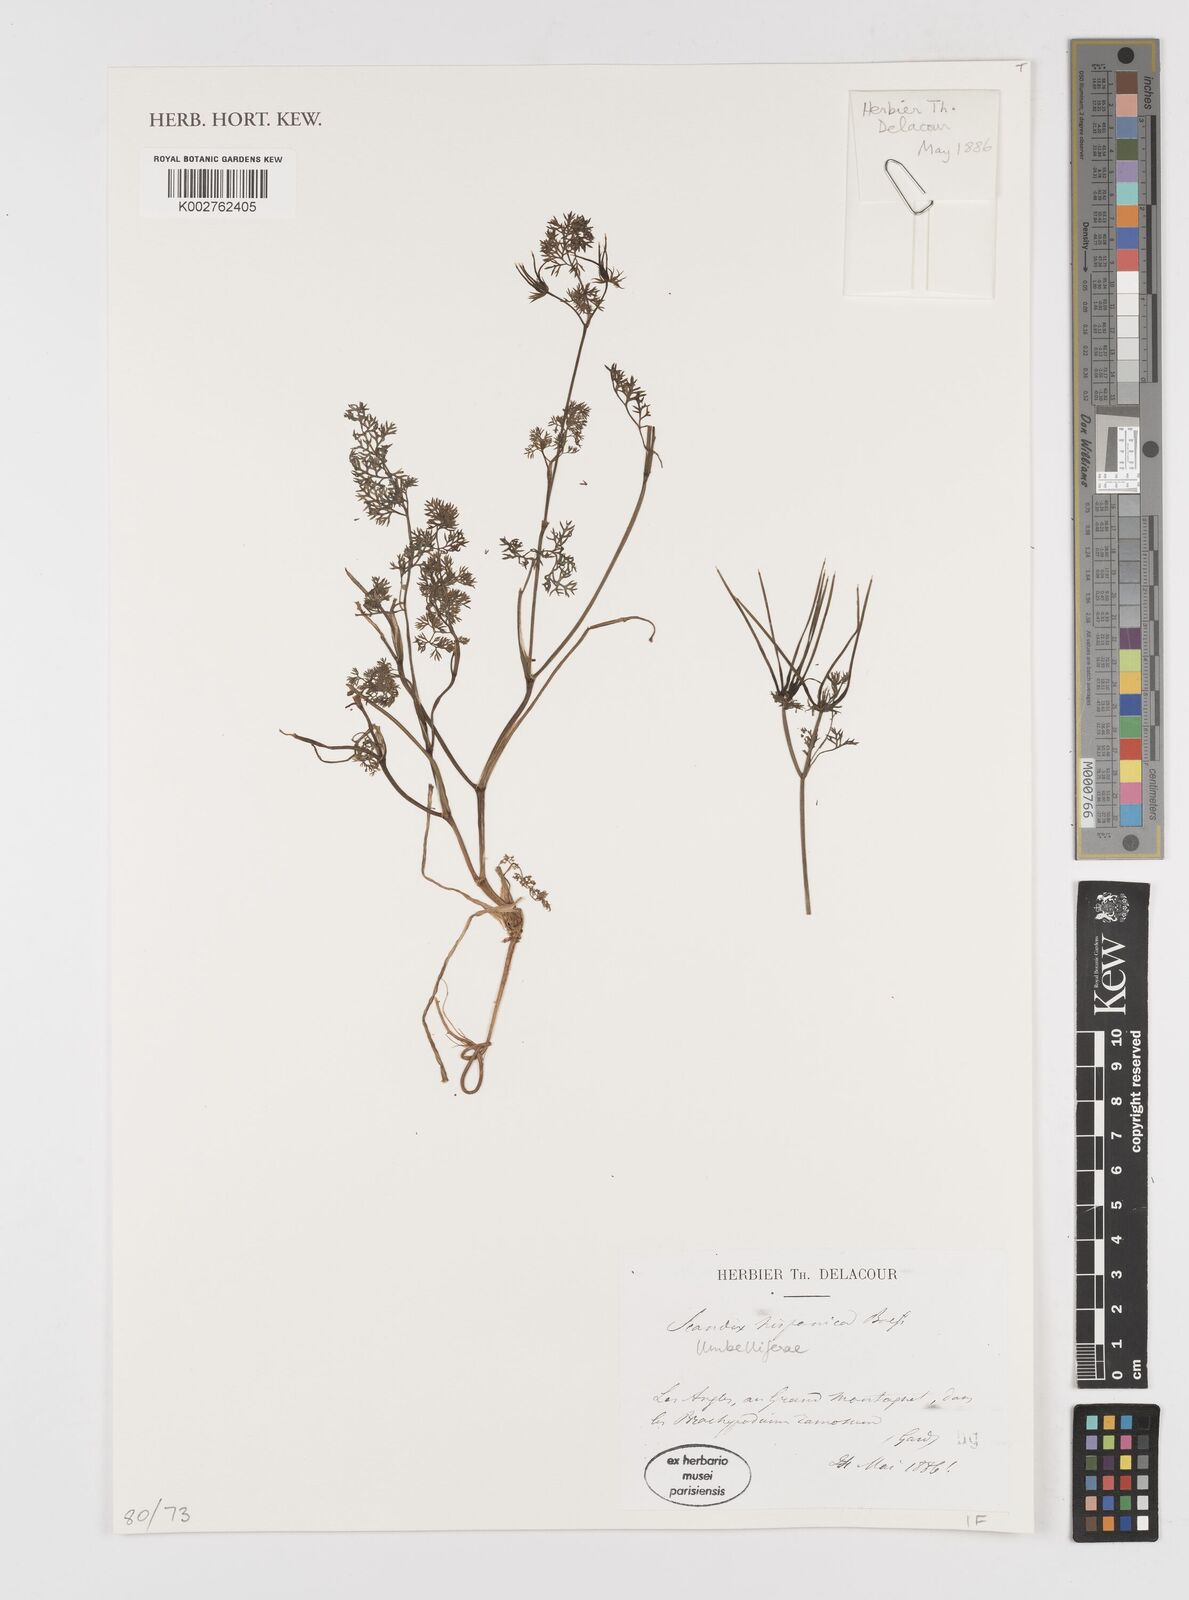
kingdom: Plantae
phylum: Tracheophyta
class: Magnoliopsida
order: Apiales
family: Apiaceae
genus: Scandix
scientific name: Scandix pecten-veneris
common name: Shepherd's-needle
